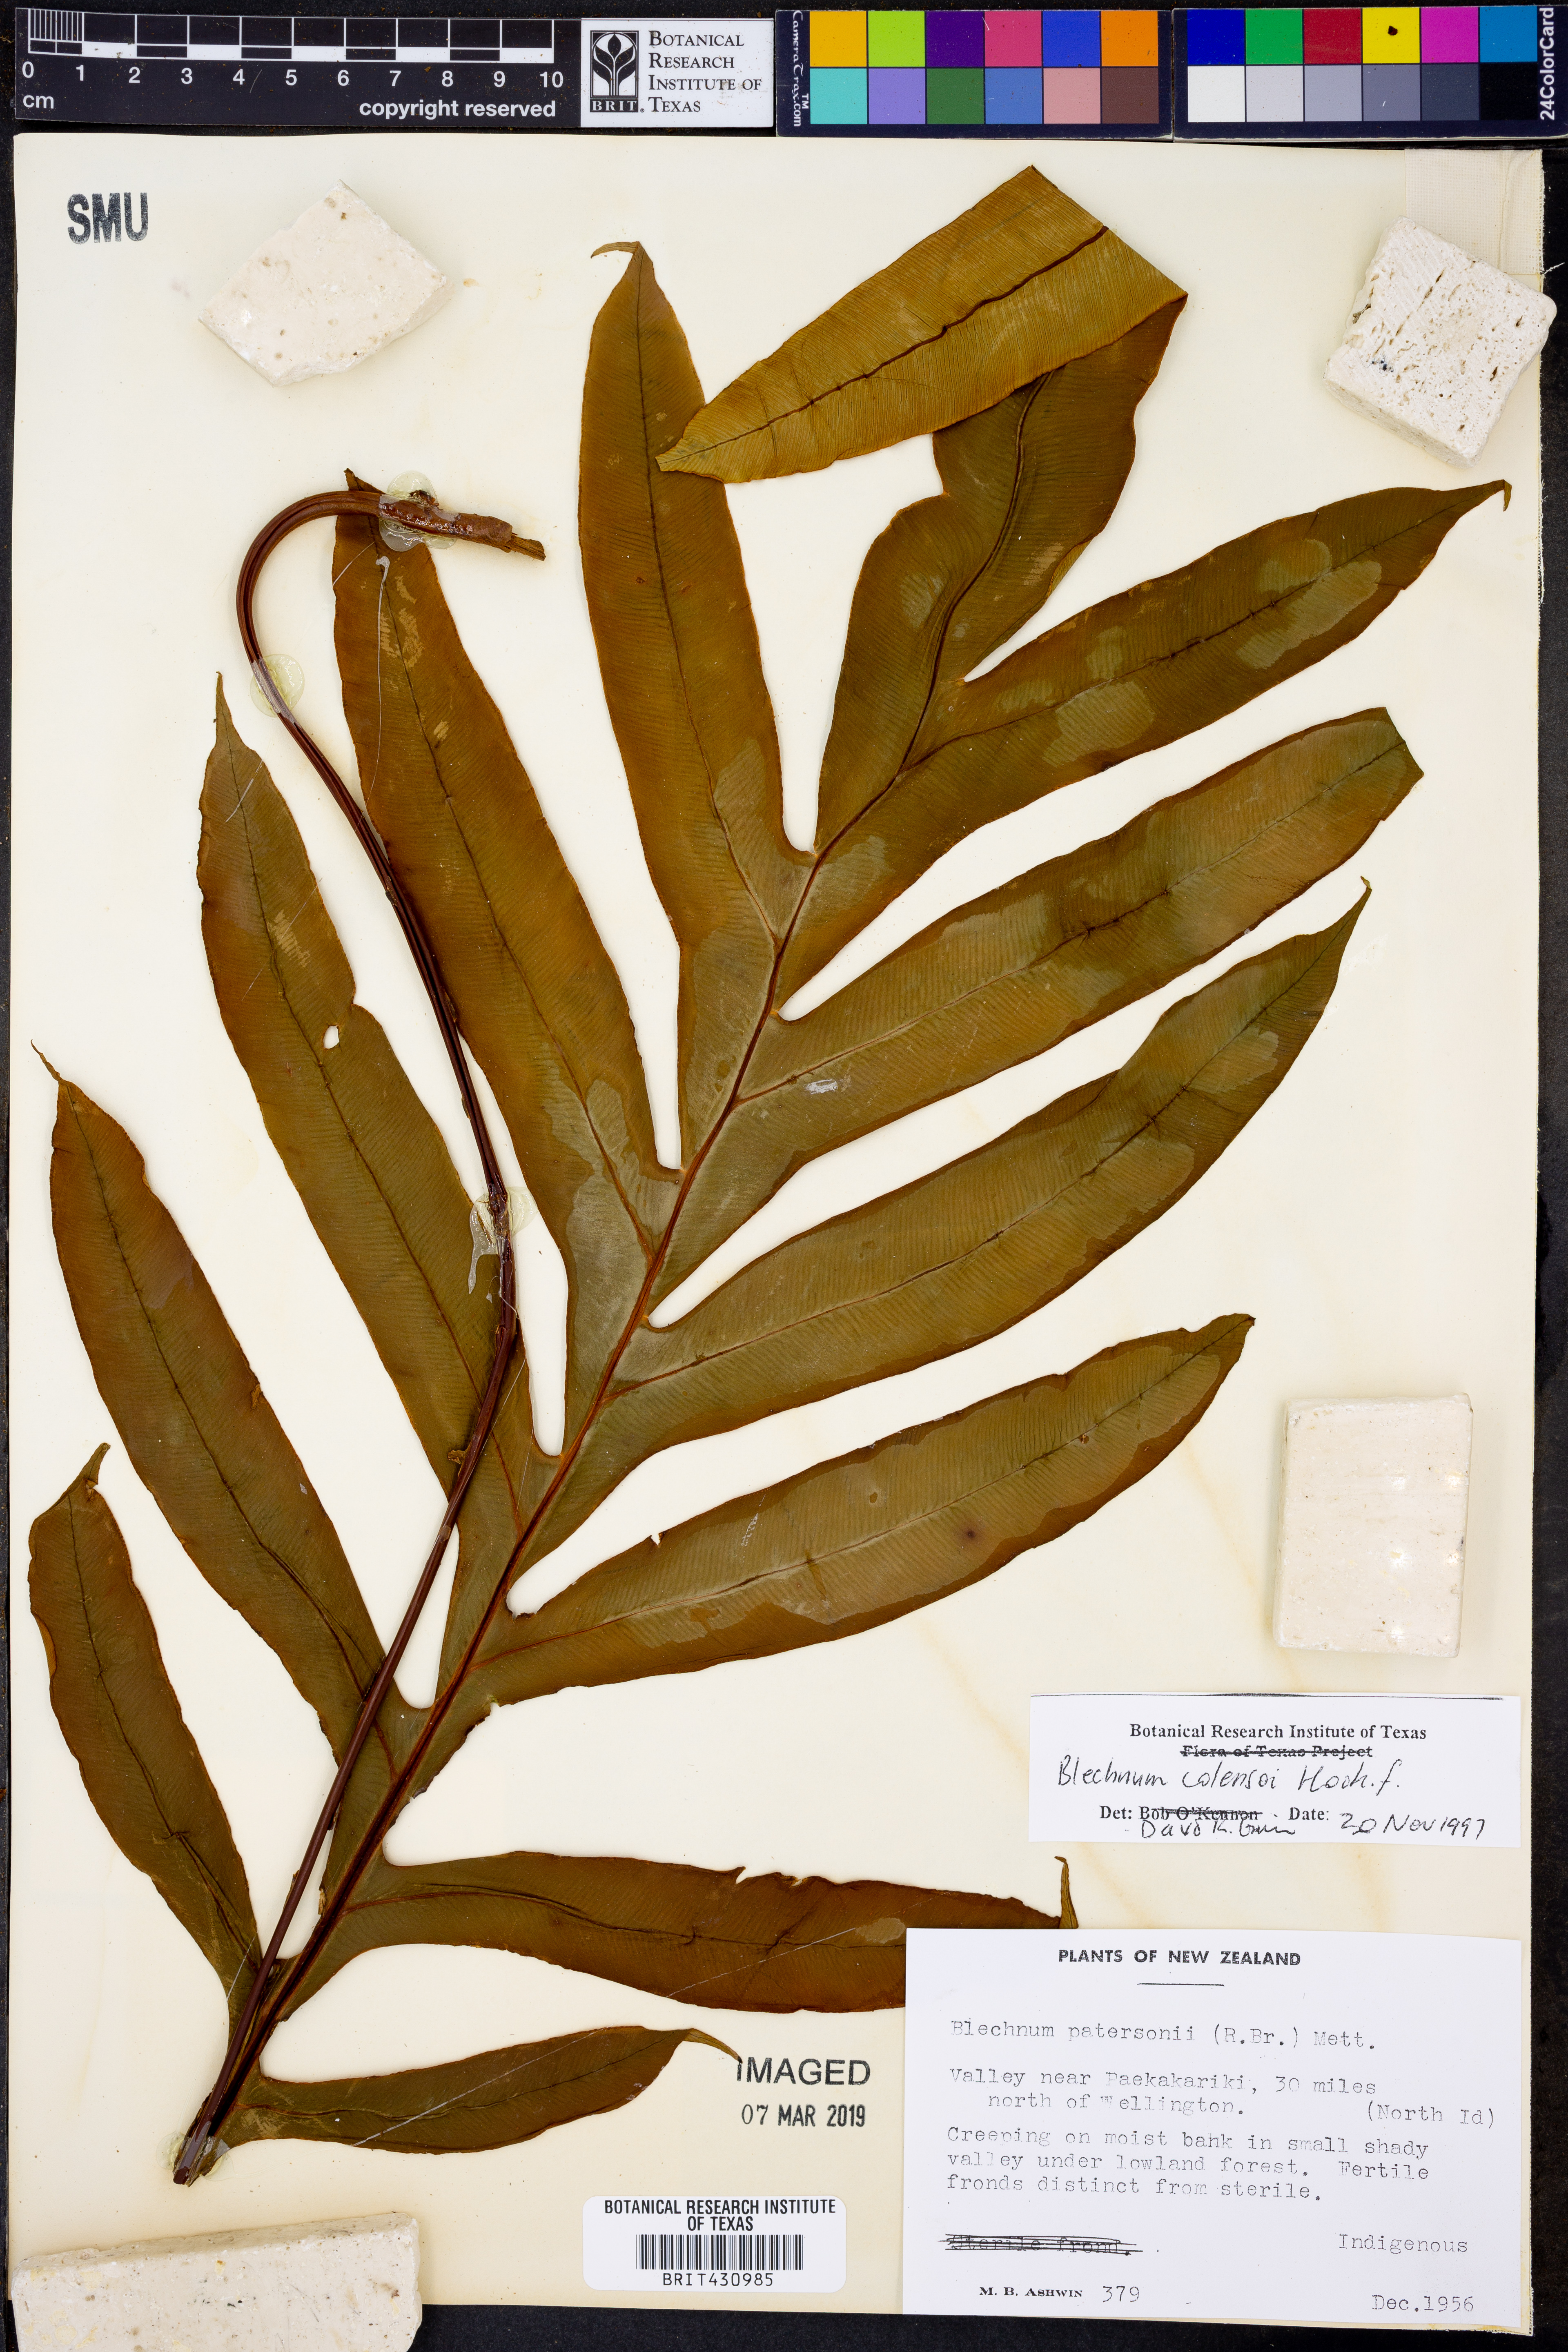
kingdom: Plantae
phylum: Tracheophyta
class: Polypodiopsida
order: Polypodiales
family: Blechnaceae
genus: Austroblechnum
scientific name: Austroblechnum colensoi
